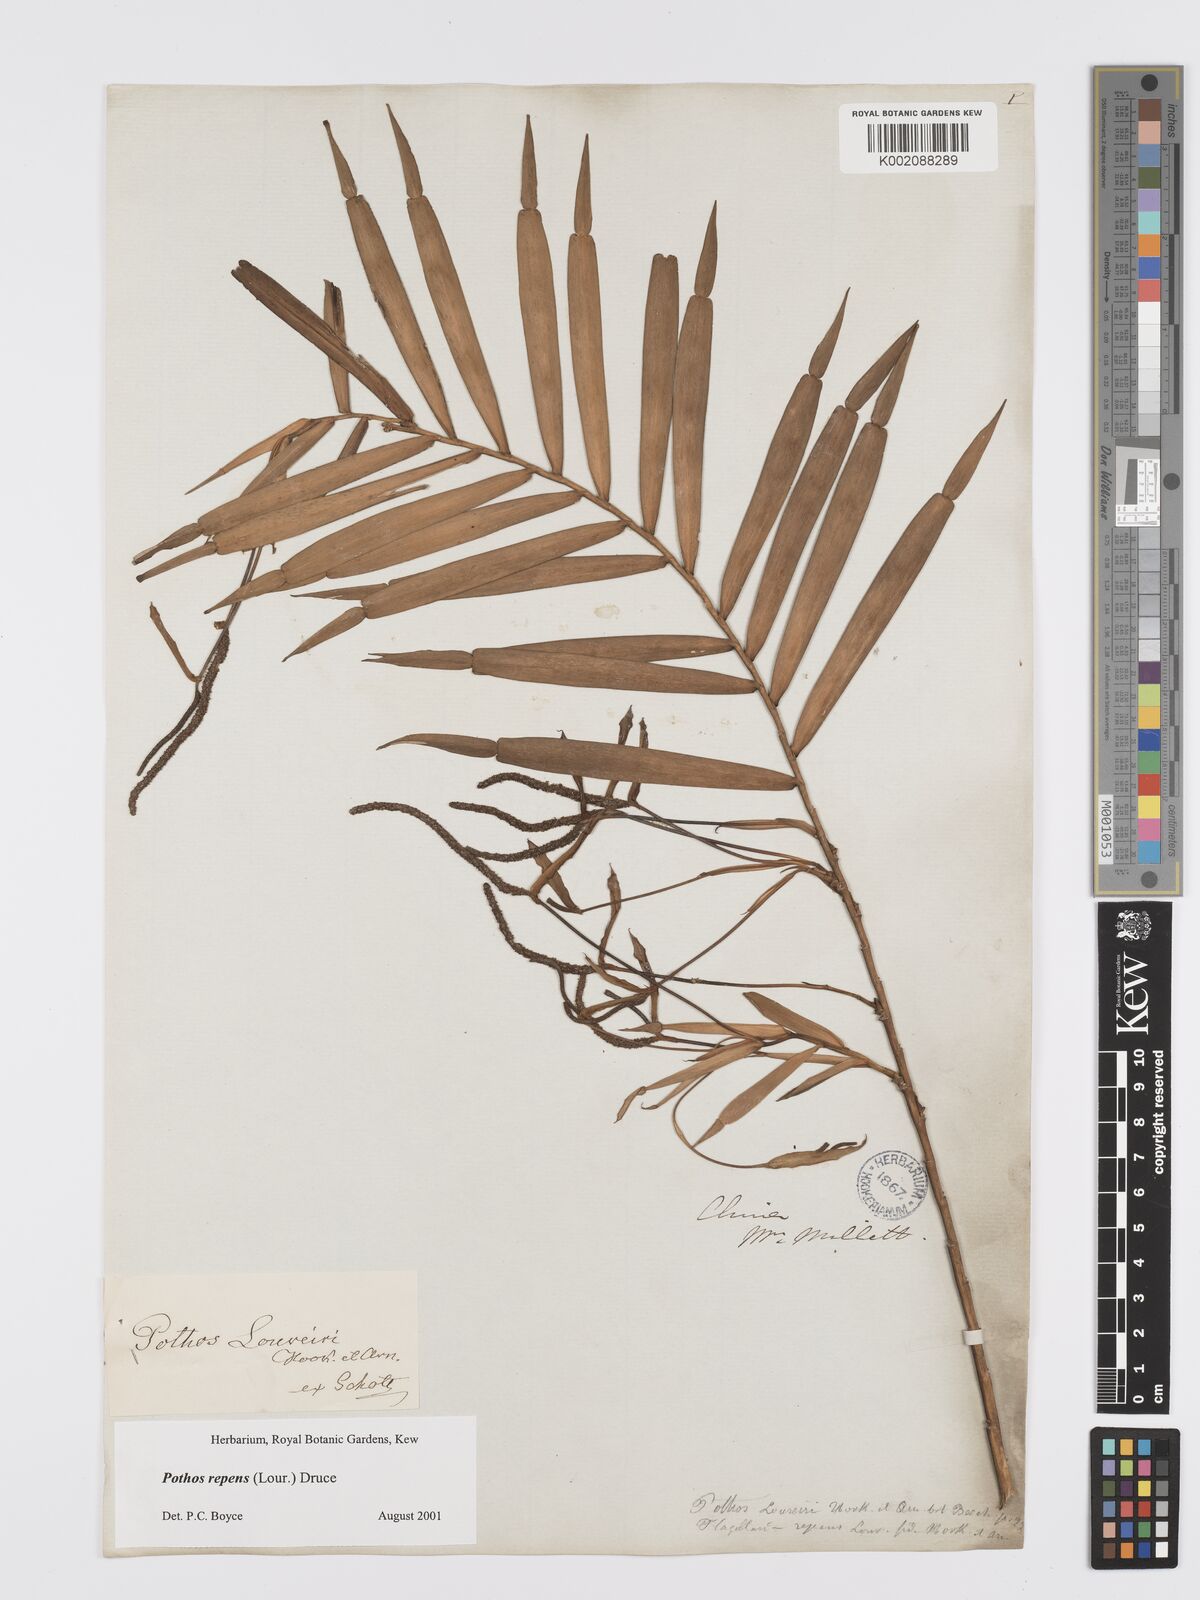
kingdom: Plantae
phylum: Tracheophyta
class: Liliopsida
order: Alismatales
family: Araceae
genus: Pothos
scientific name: Pothos repens
